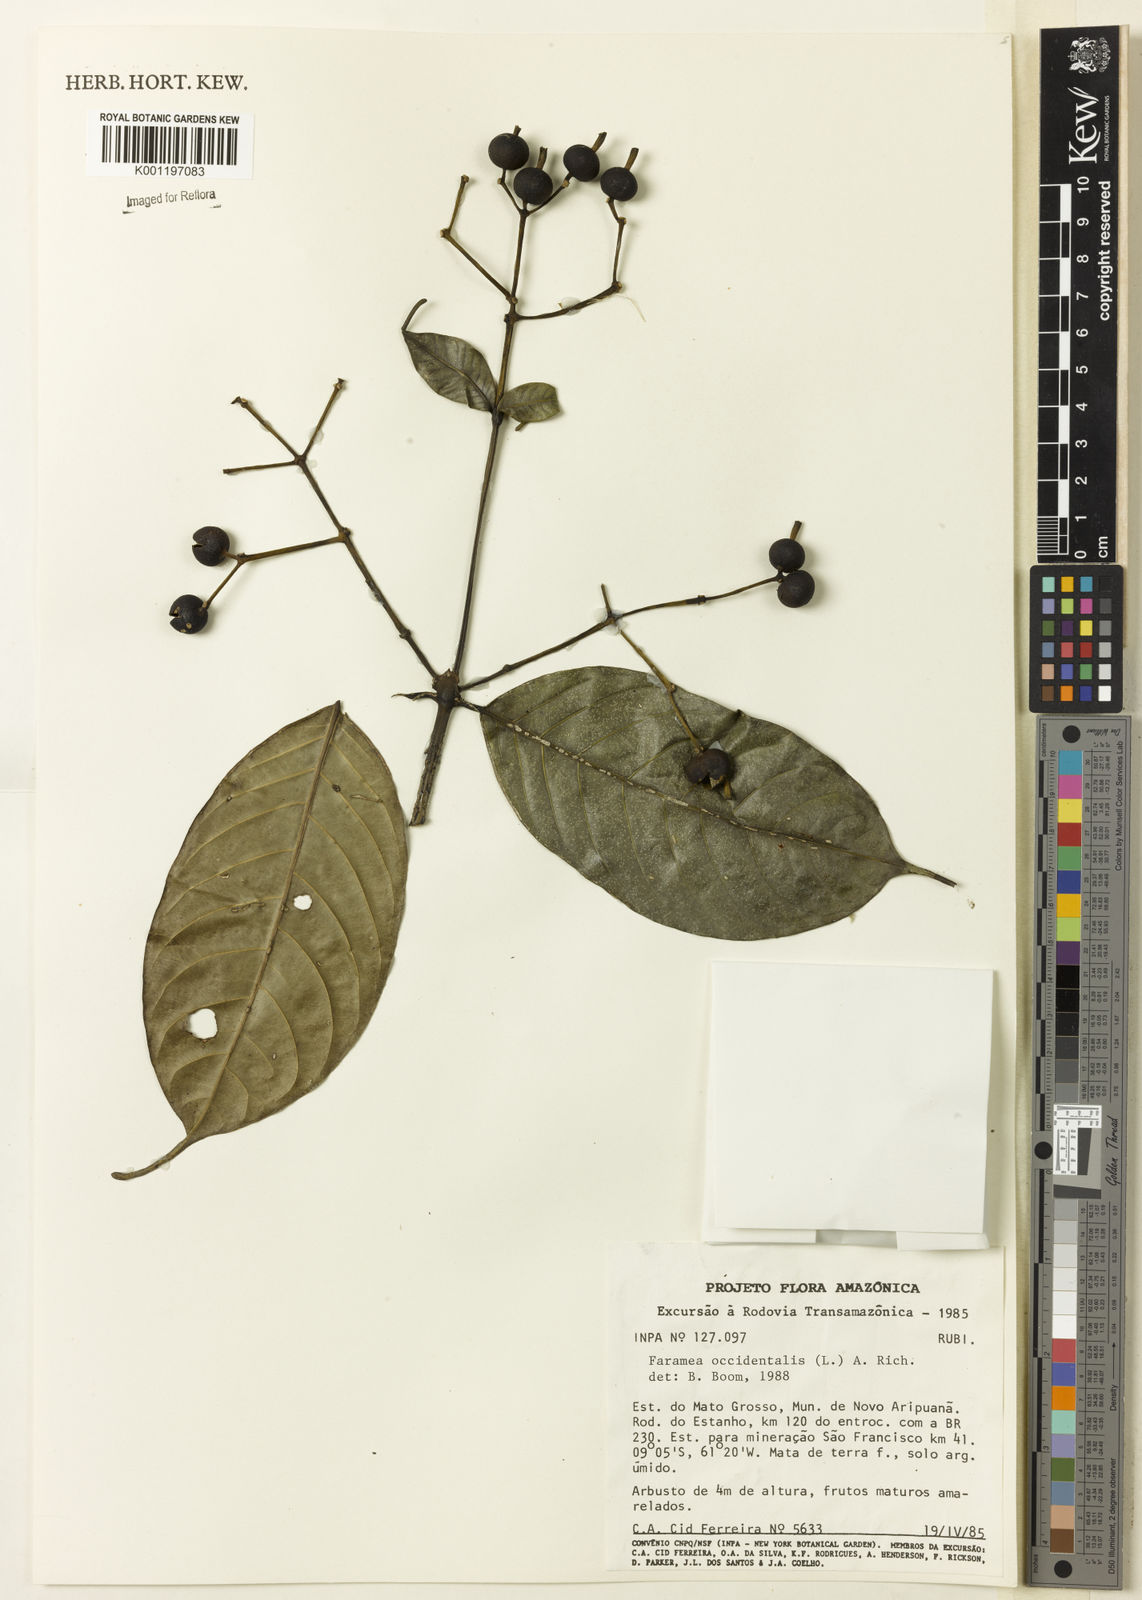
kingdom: Plantae
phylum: Tracheophyta
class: Magnoliopsida
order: Gentianales
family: Rubiaceae
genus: Faramea
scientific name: Faramea occidentalis
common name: False coffee
